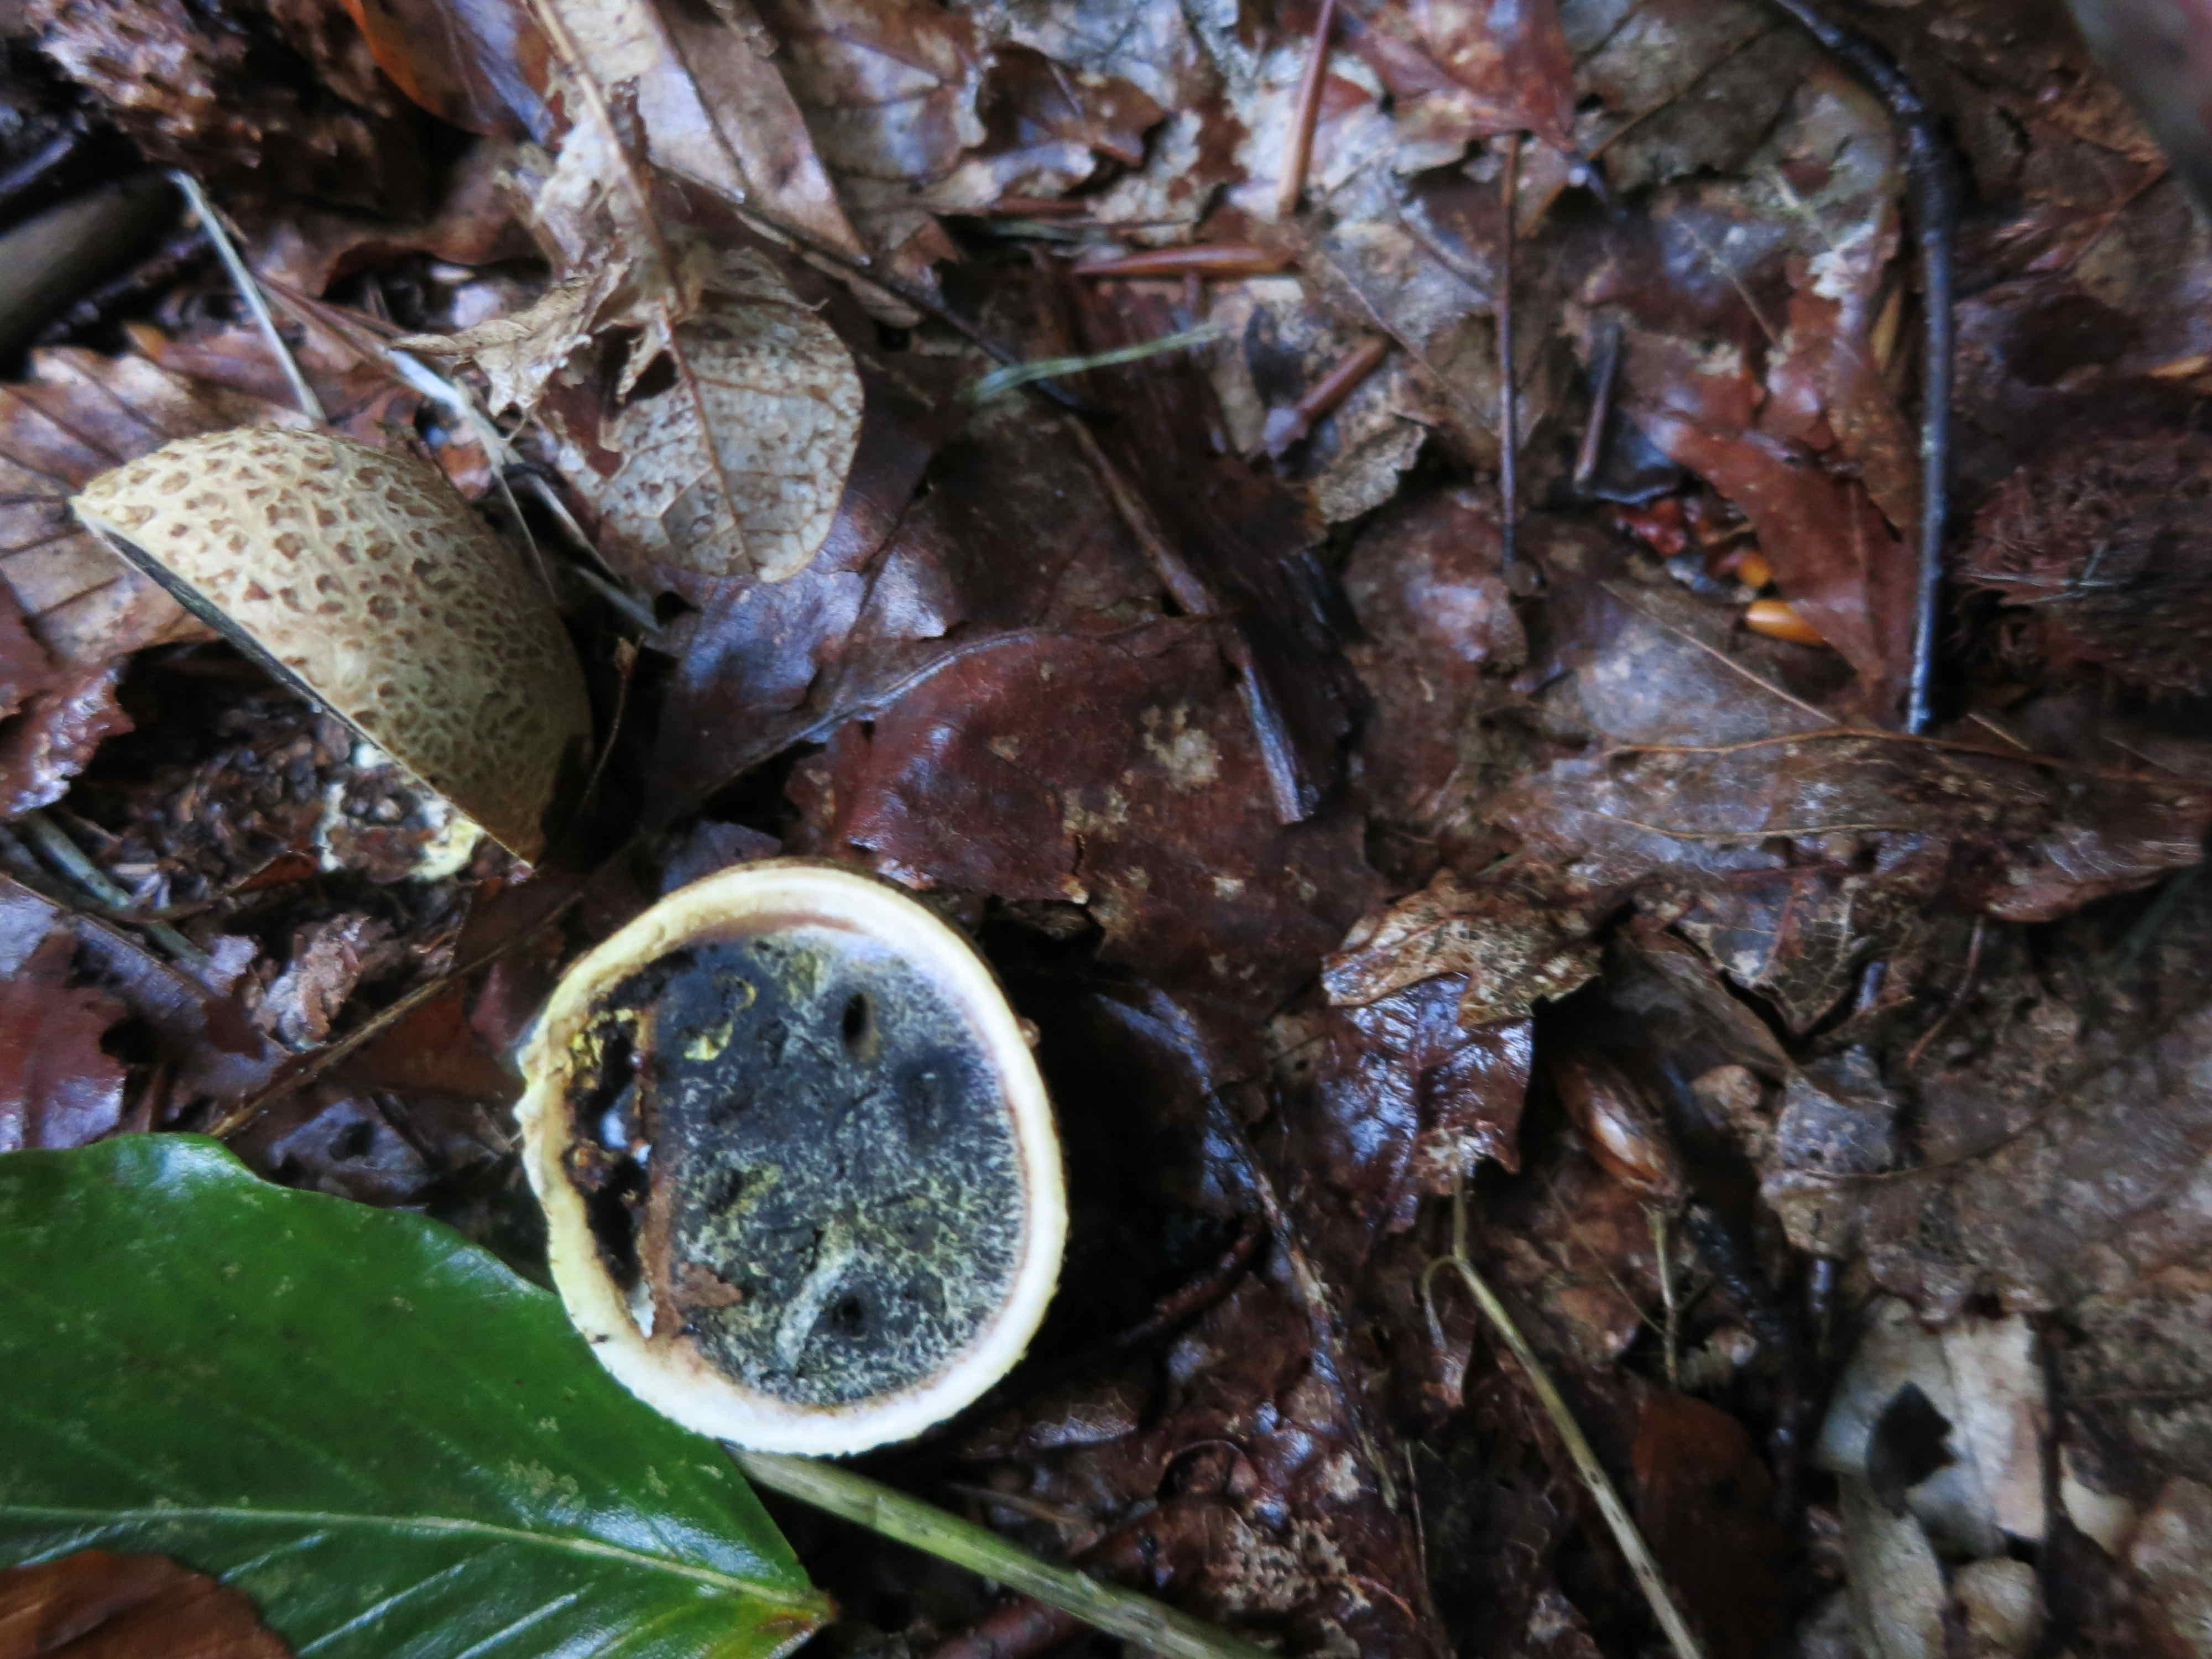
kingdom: Fungi
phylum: Basidiomycota
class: Agaricomycetes
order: Boletales
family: Sclerodermataceae
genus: Scleroderma
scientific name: Scleroderma citrinum
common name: almindelig bruskbold
